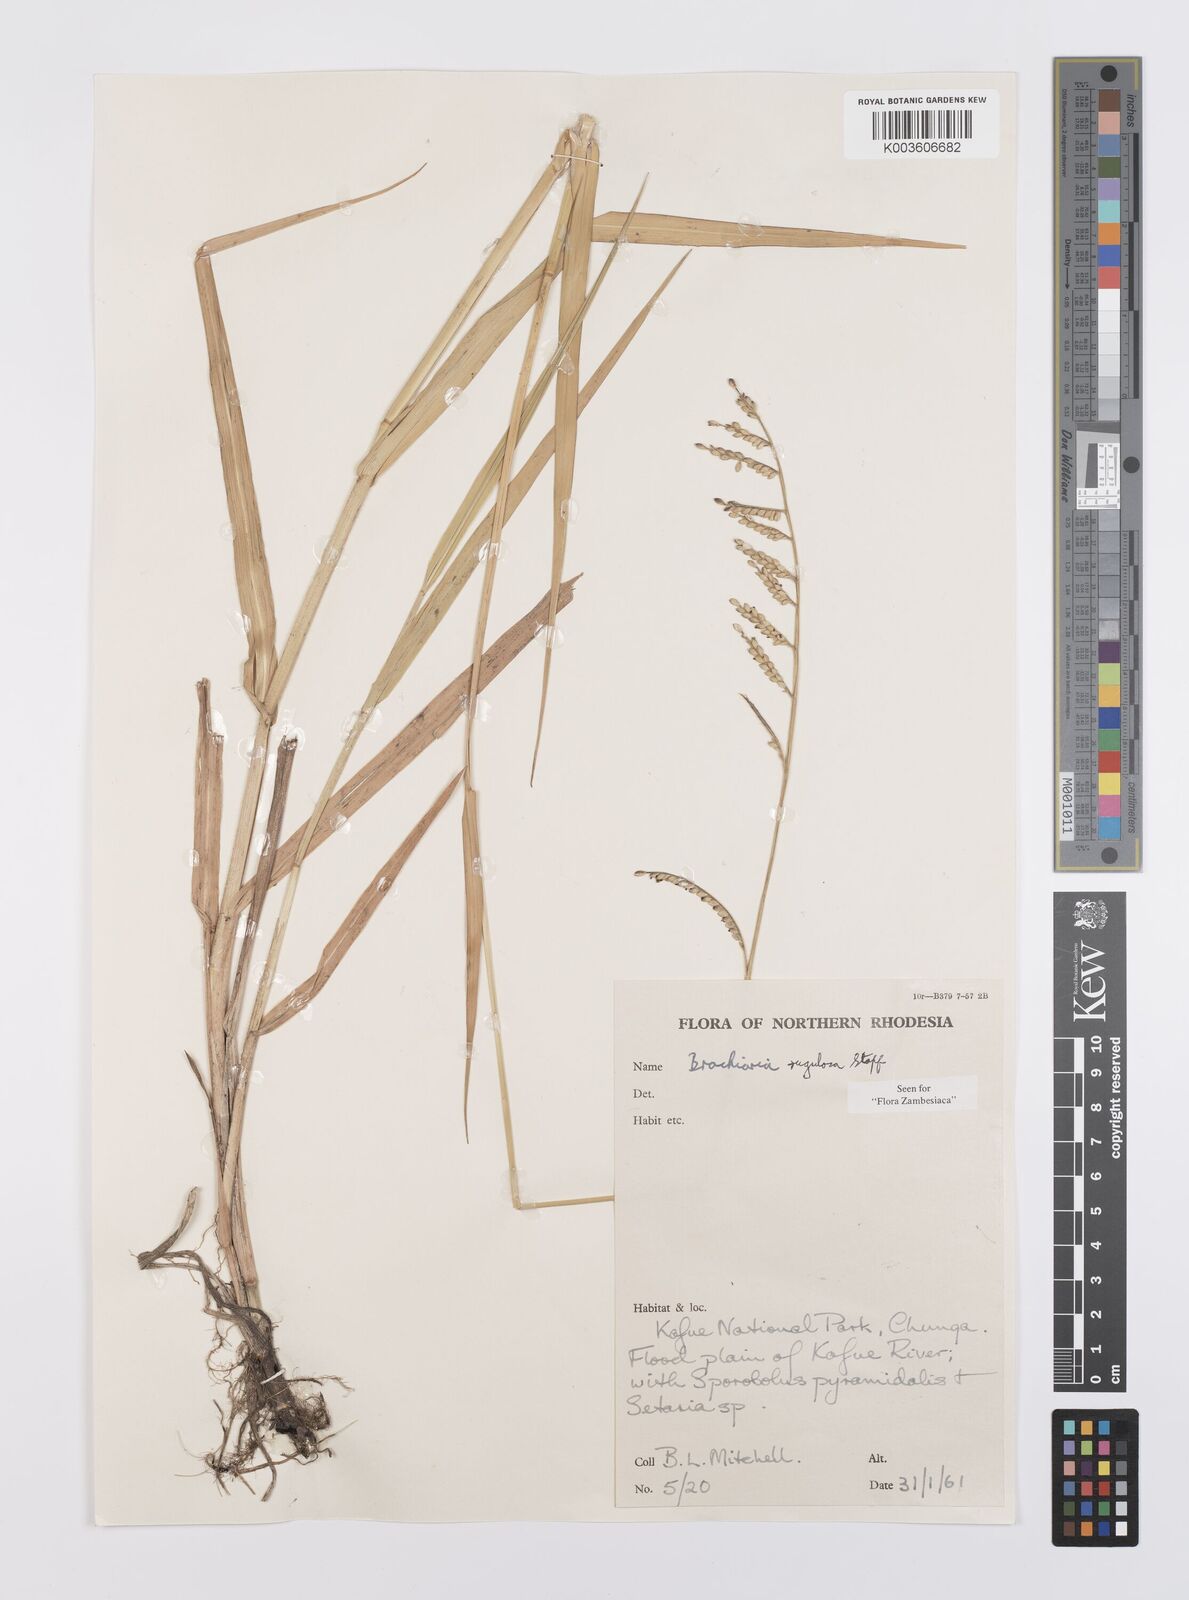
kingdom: Plantae
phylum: Tracheophyta
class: Liliopsida
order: Poales
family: Poaceae
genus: Urochloa
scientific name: Urochloa rugulosa
